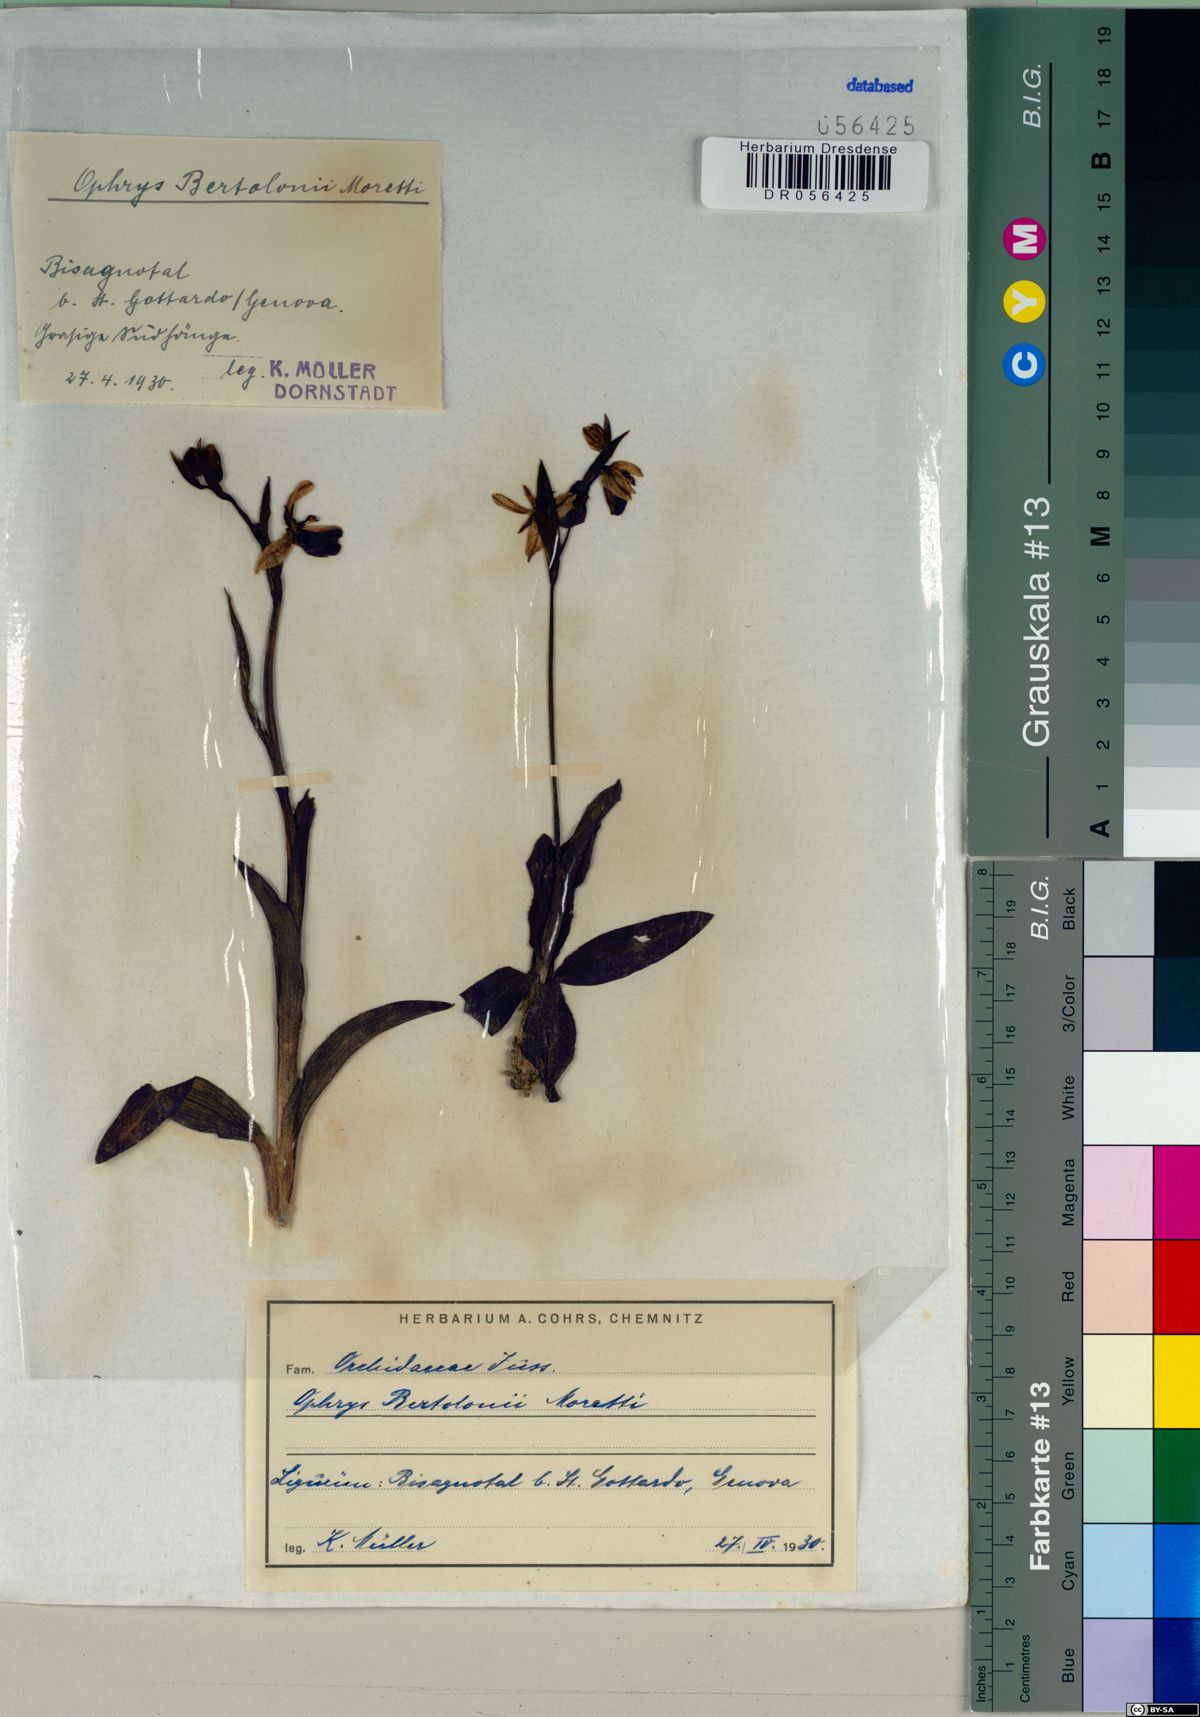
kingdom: Plantae
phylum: Tracheophyta
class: Liliopsida
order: Asparagales
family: Orchidaceae
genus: Ophrys
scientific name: Ophrys bertolonii
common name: Bertoloni's bee orchid
